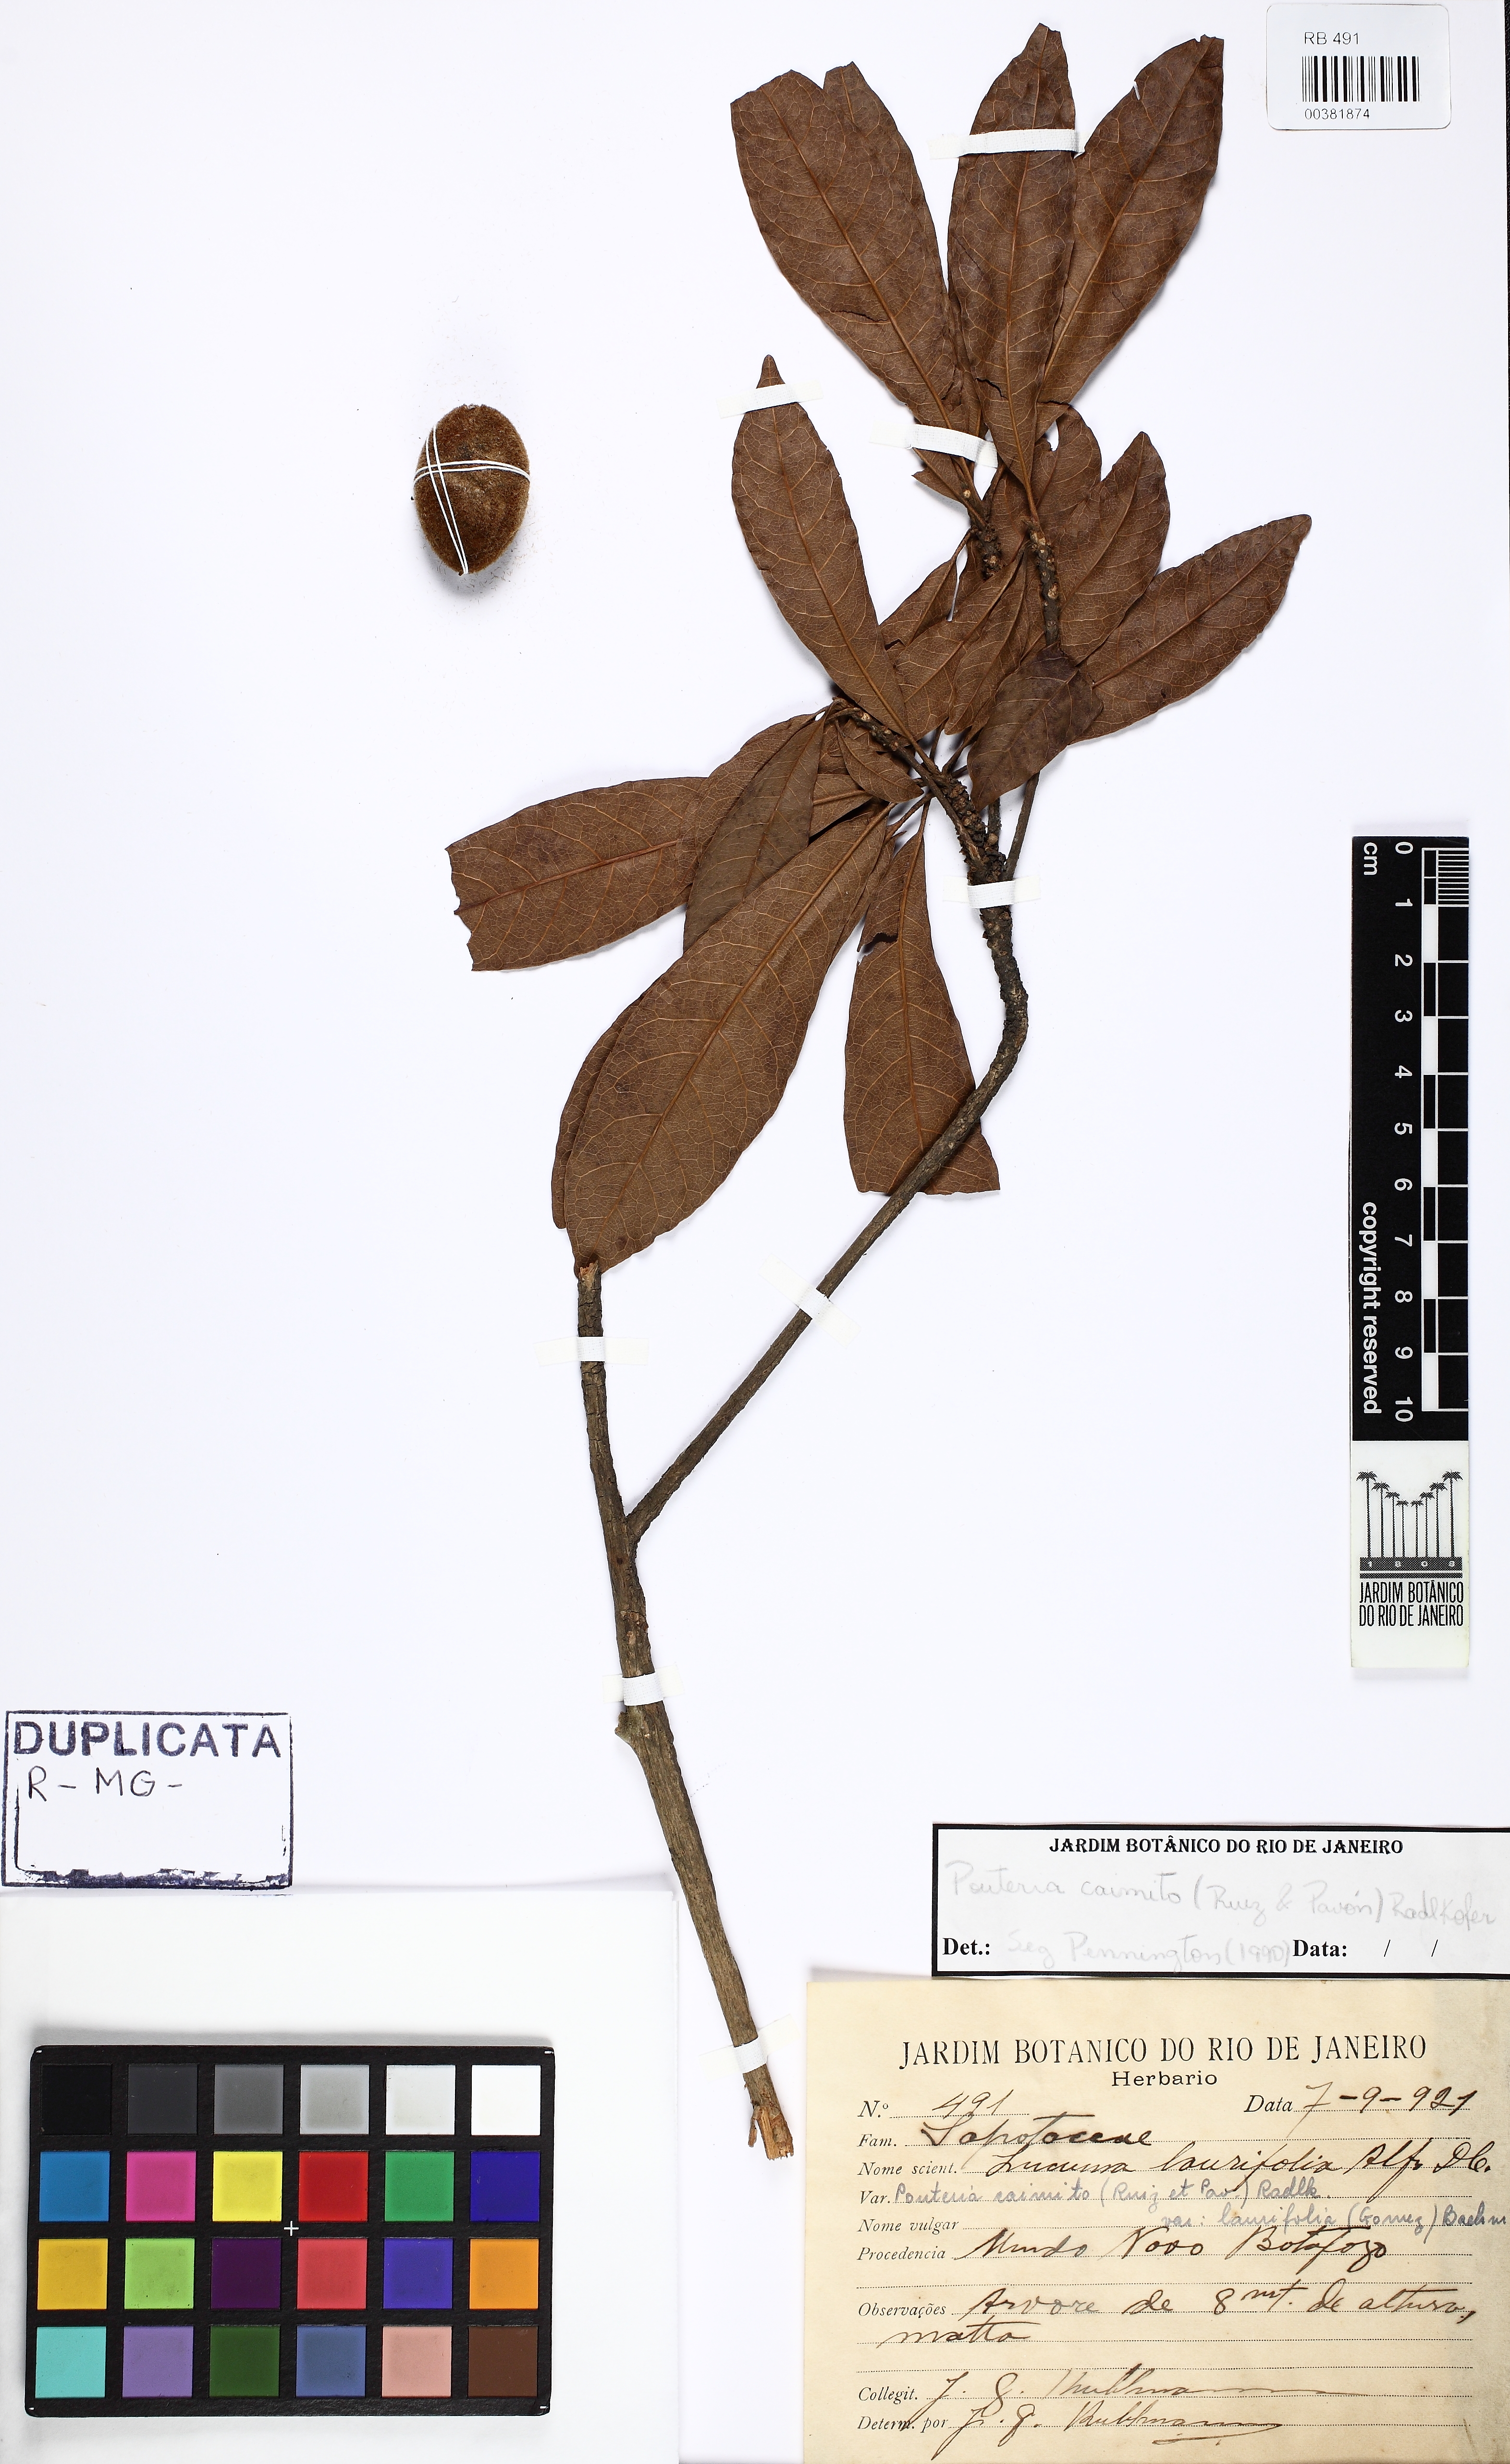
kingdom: Plantae
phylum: Tracheophyta
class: Magnoliopsida
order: Ericales
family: Sapotaceae
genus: Pouteria
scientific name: Pouteria caimito
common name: Caimito
